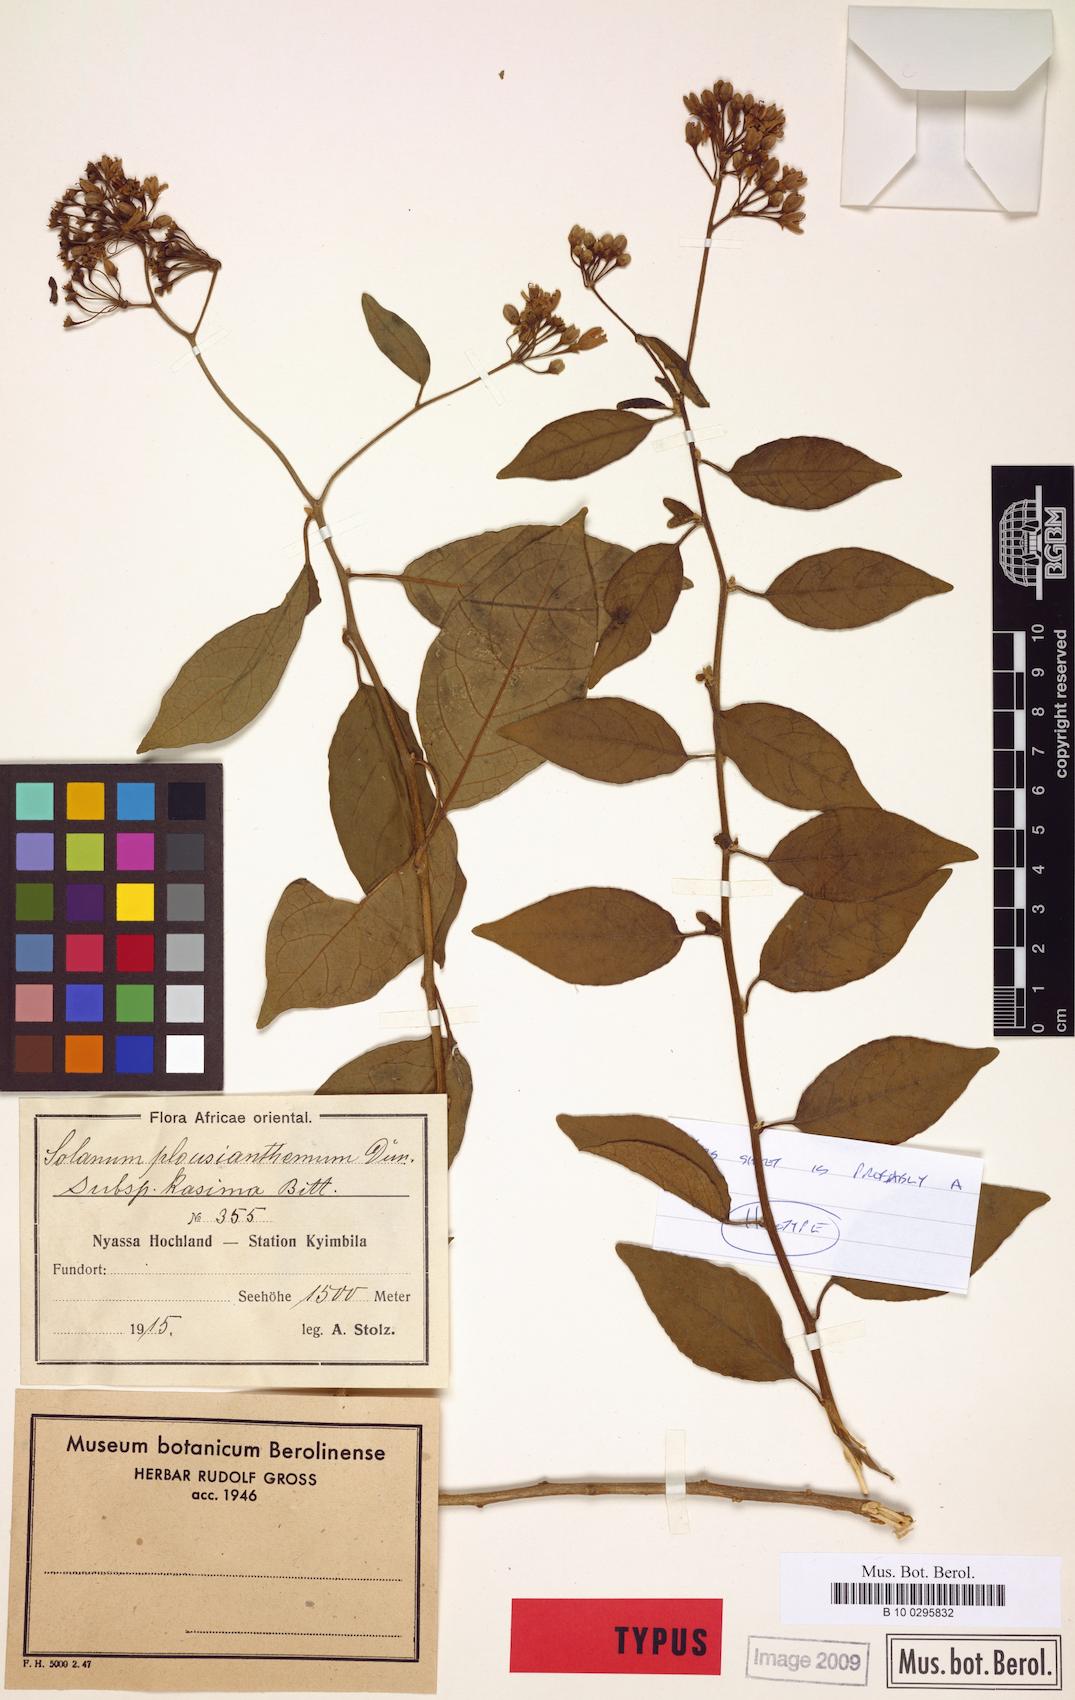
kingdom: Plantae
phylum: Tracheophyta
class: Magnoliopsida
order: Solanales
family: Solanaceae
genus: Solanum
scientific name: Solanum terminale
